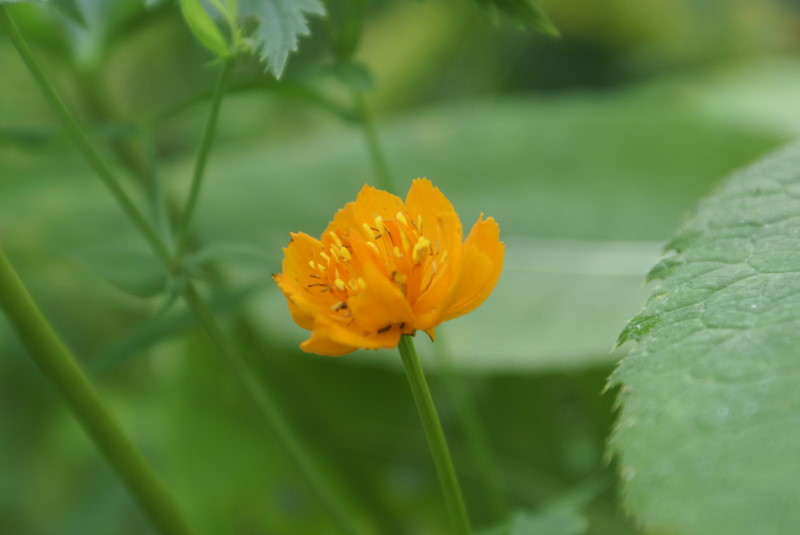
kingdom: Plantae
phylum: Tracheophyta
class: Magnoliopsida
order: Ranunculales
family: Ranunculaceae
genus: Trollius
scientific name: Trollius altaicus
